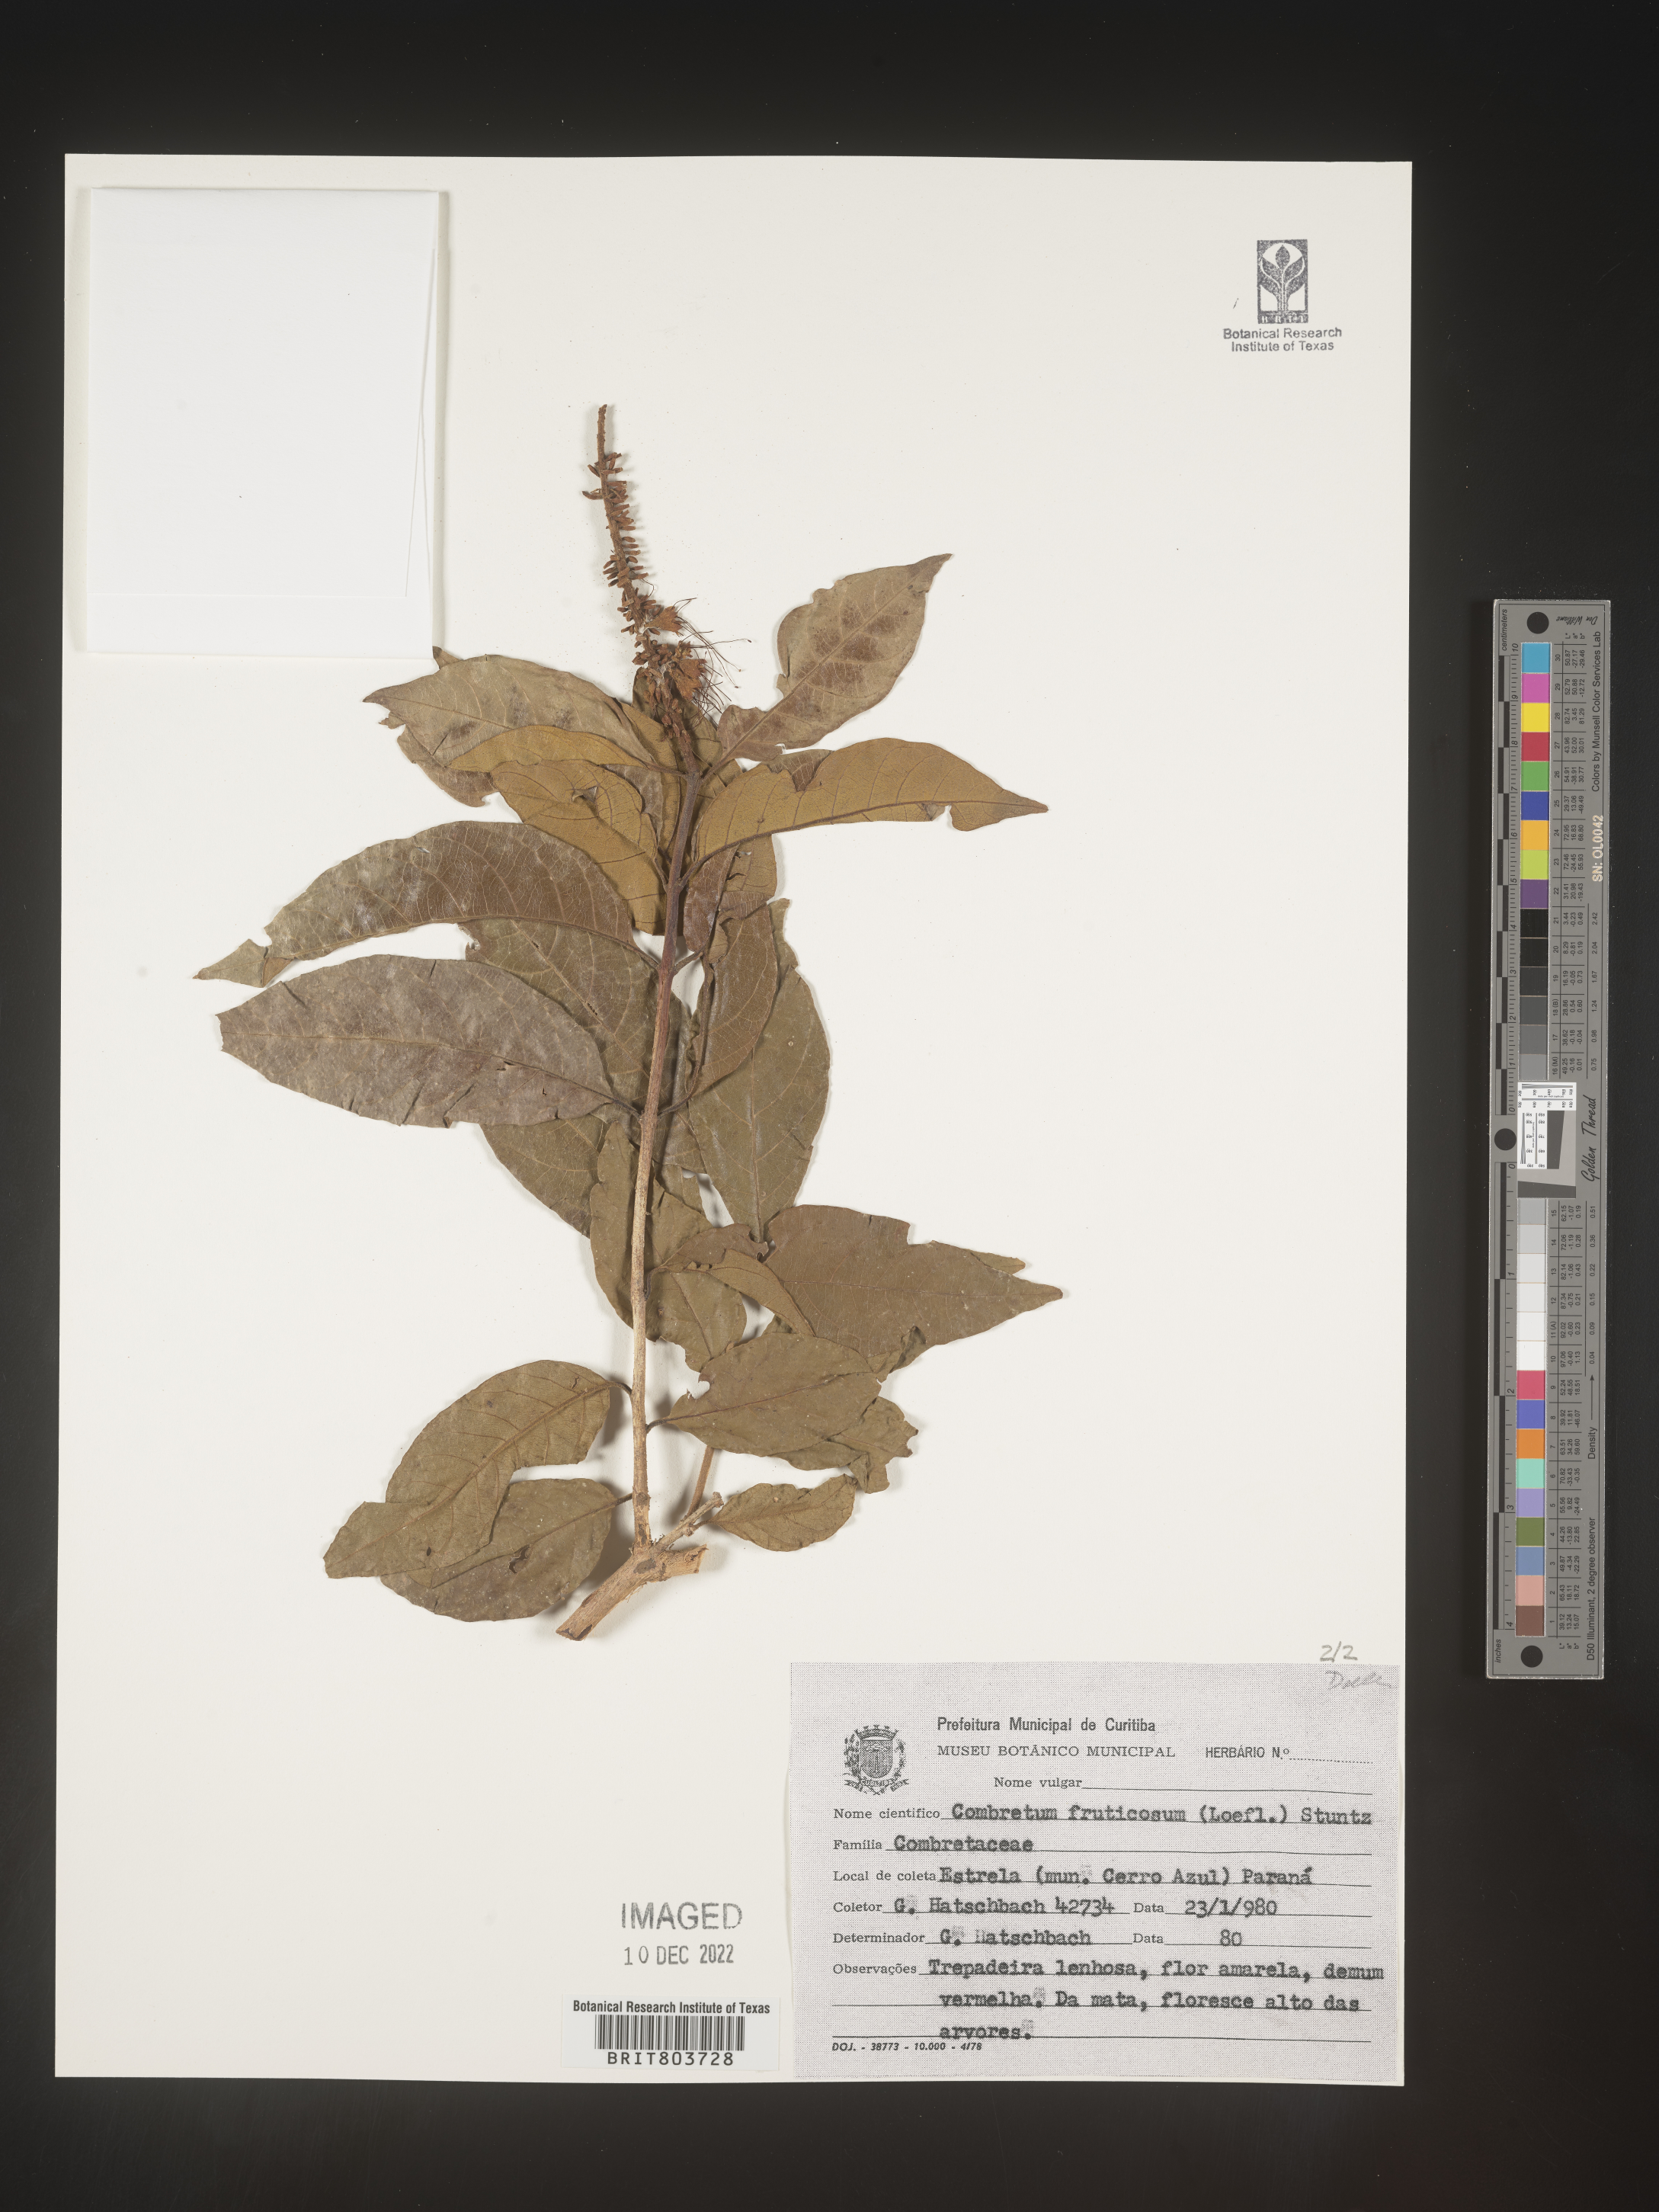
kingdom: Plantae
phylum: Tracheophyta
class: Magnoliopsida
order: Myrtales
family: Combretaceae
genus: Combretum
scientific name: Combretum
